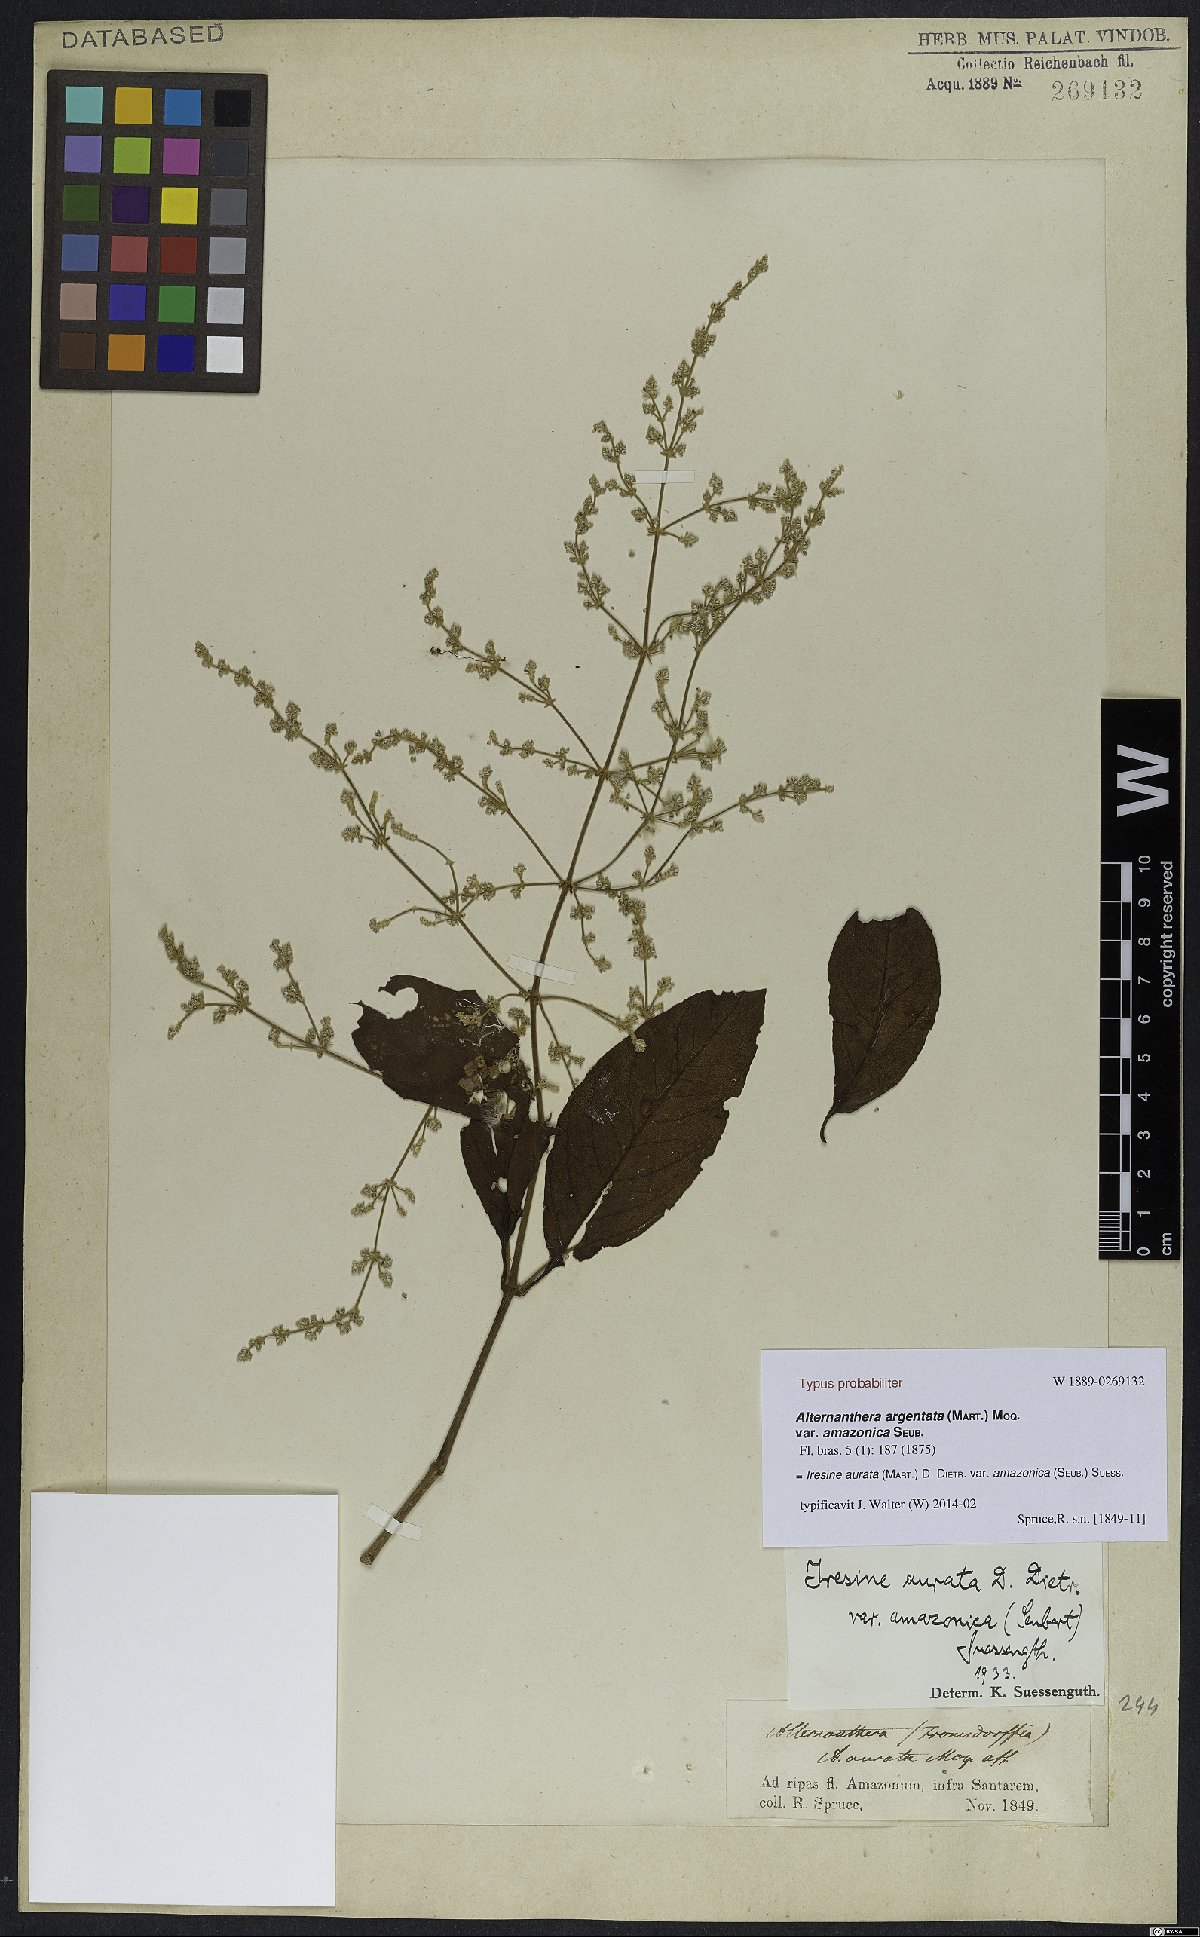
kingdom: Plantae
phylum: Tracheophyta
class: Magnoliopsida
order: Caryophyllales
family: Amaranthaceae
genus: Pedersenia
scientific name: Pedersenia argentata
